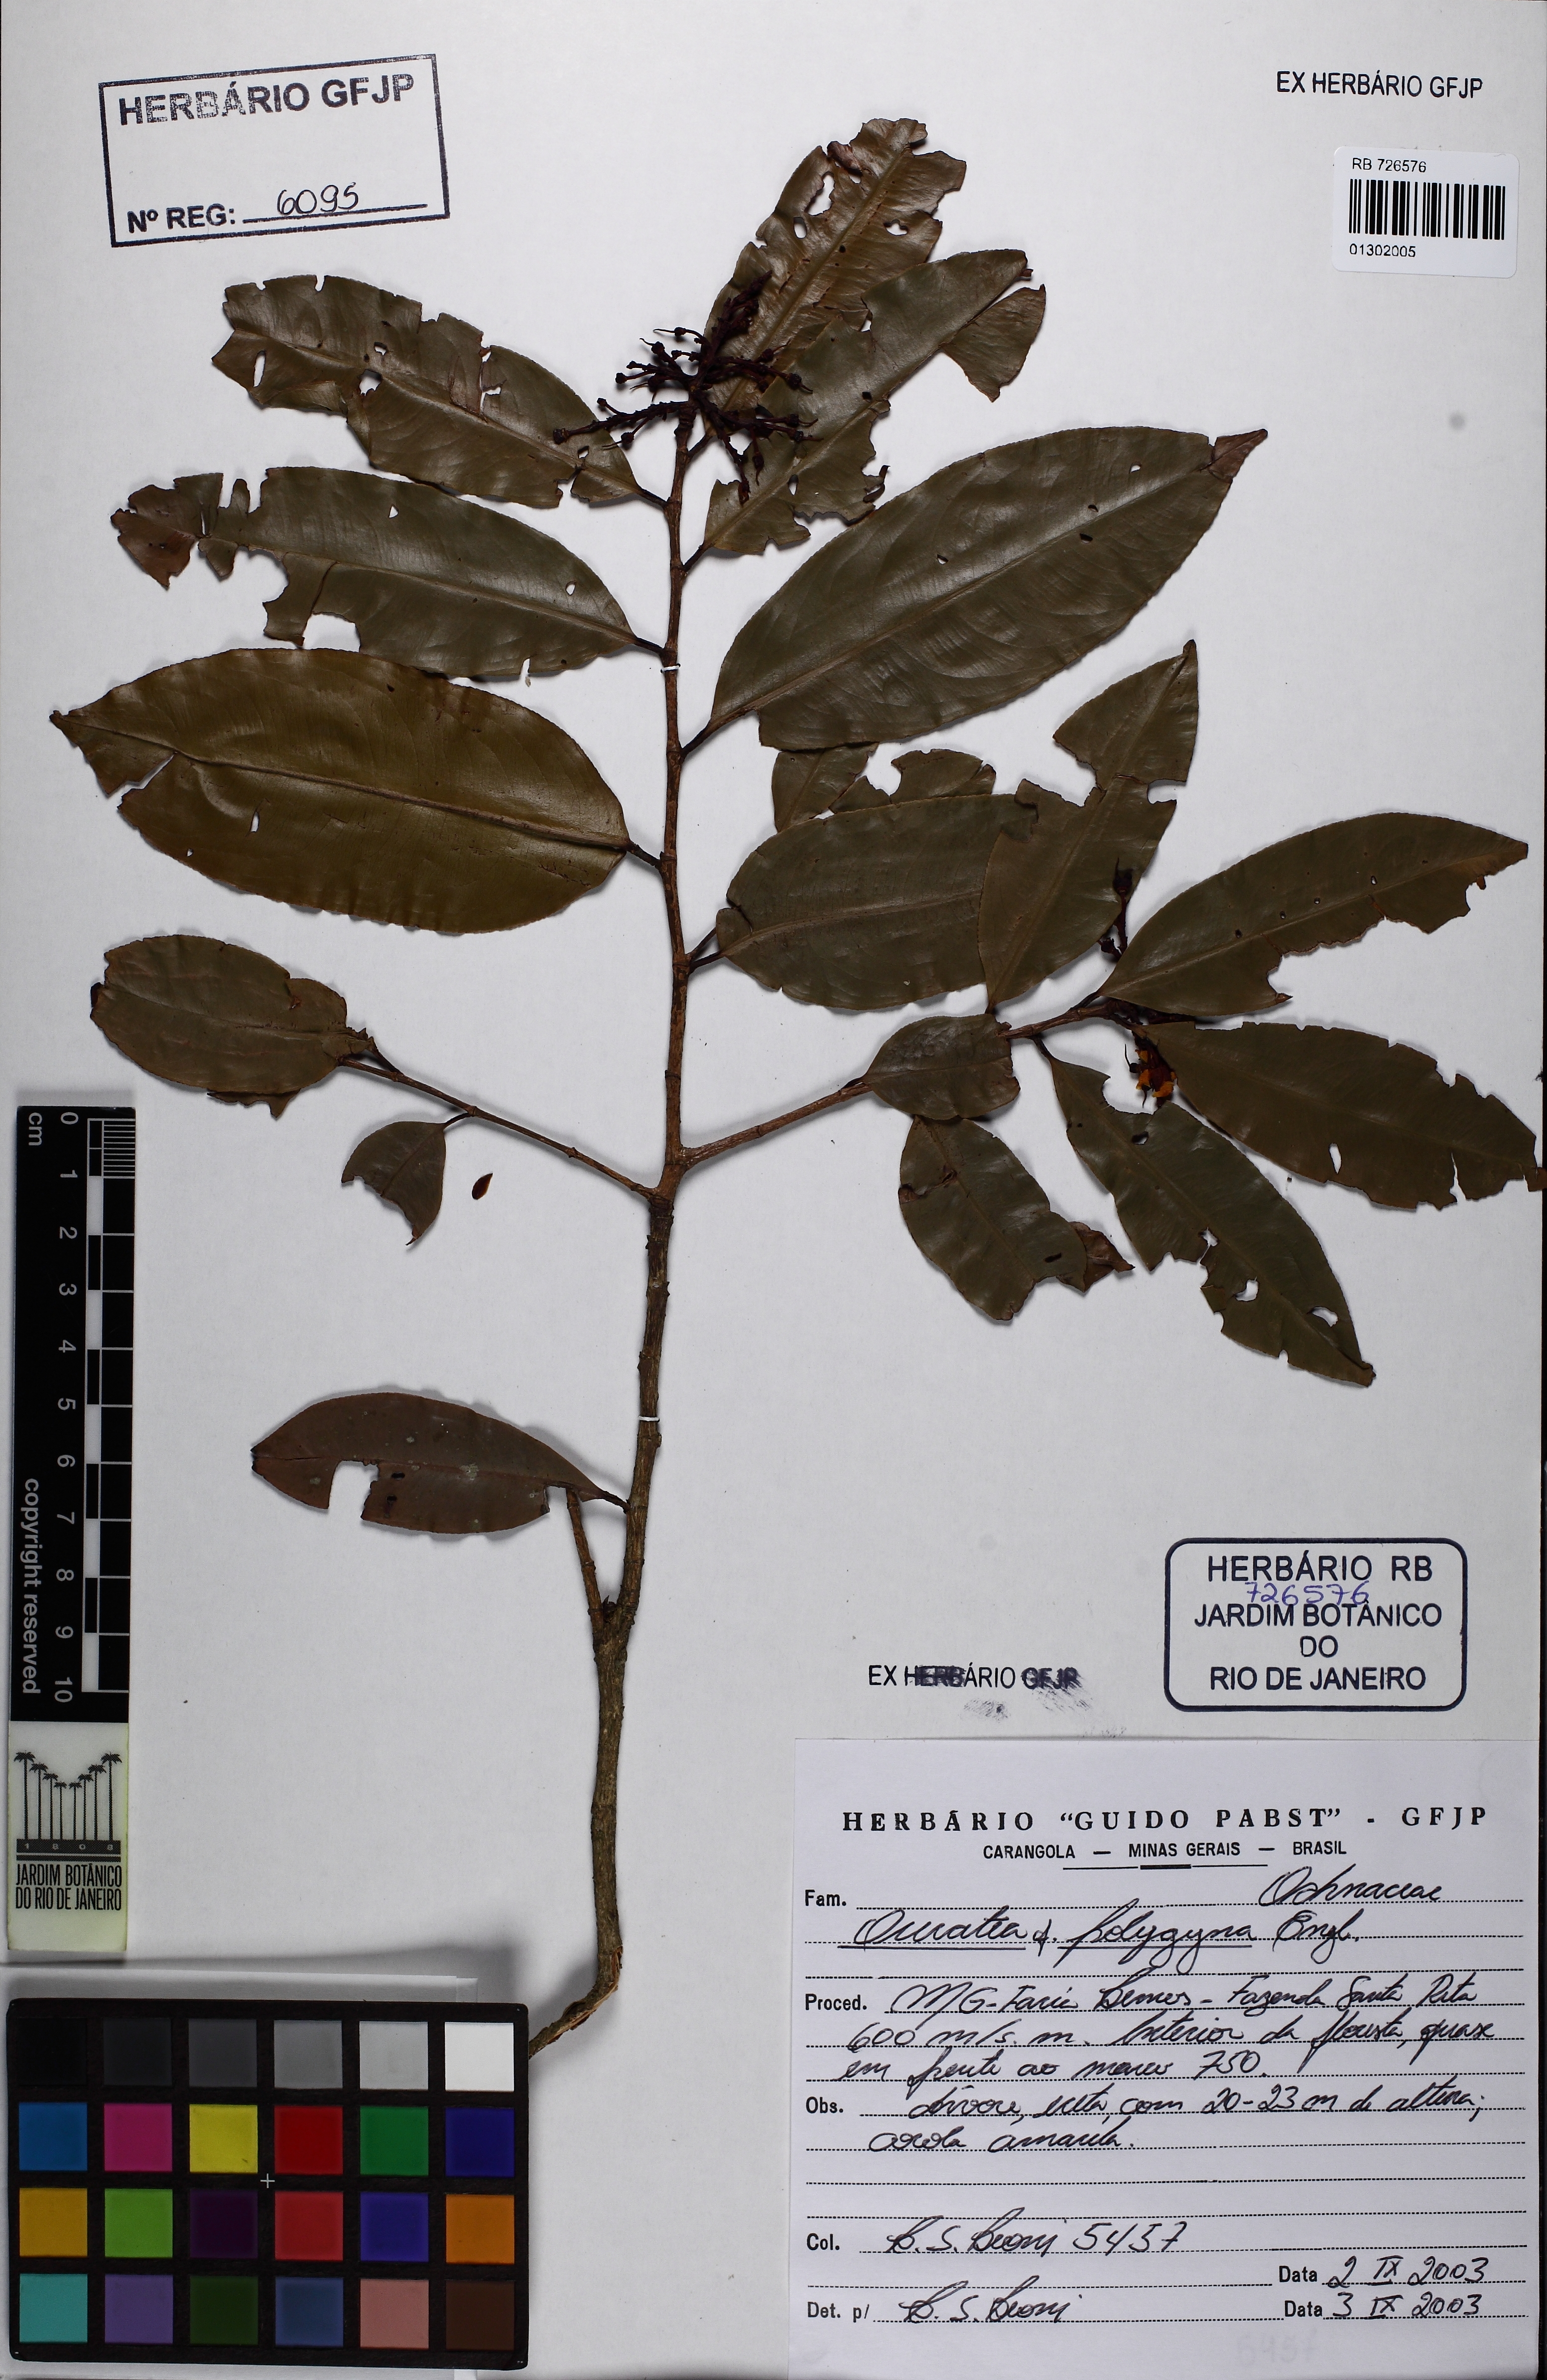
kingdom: Plantae
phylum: Tracheophyta
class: Magnoliopsida
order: Malpighiales
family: Ochnaceae
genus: Ouratea
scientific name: Ouratea polygyna
